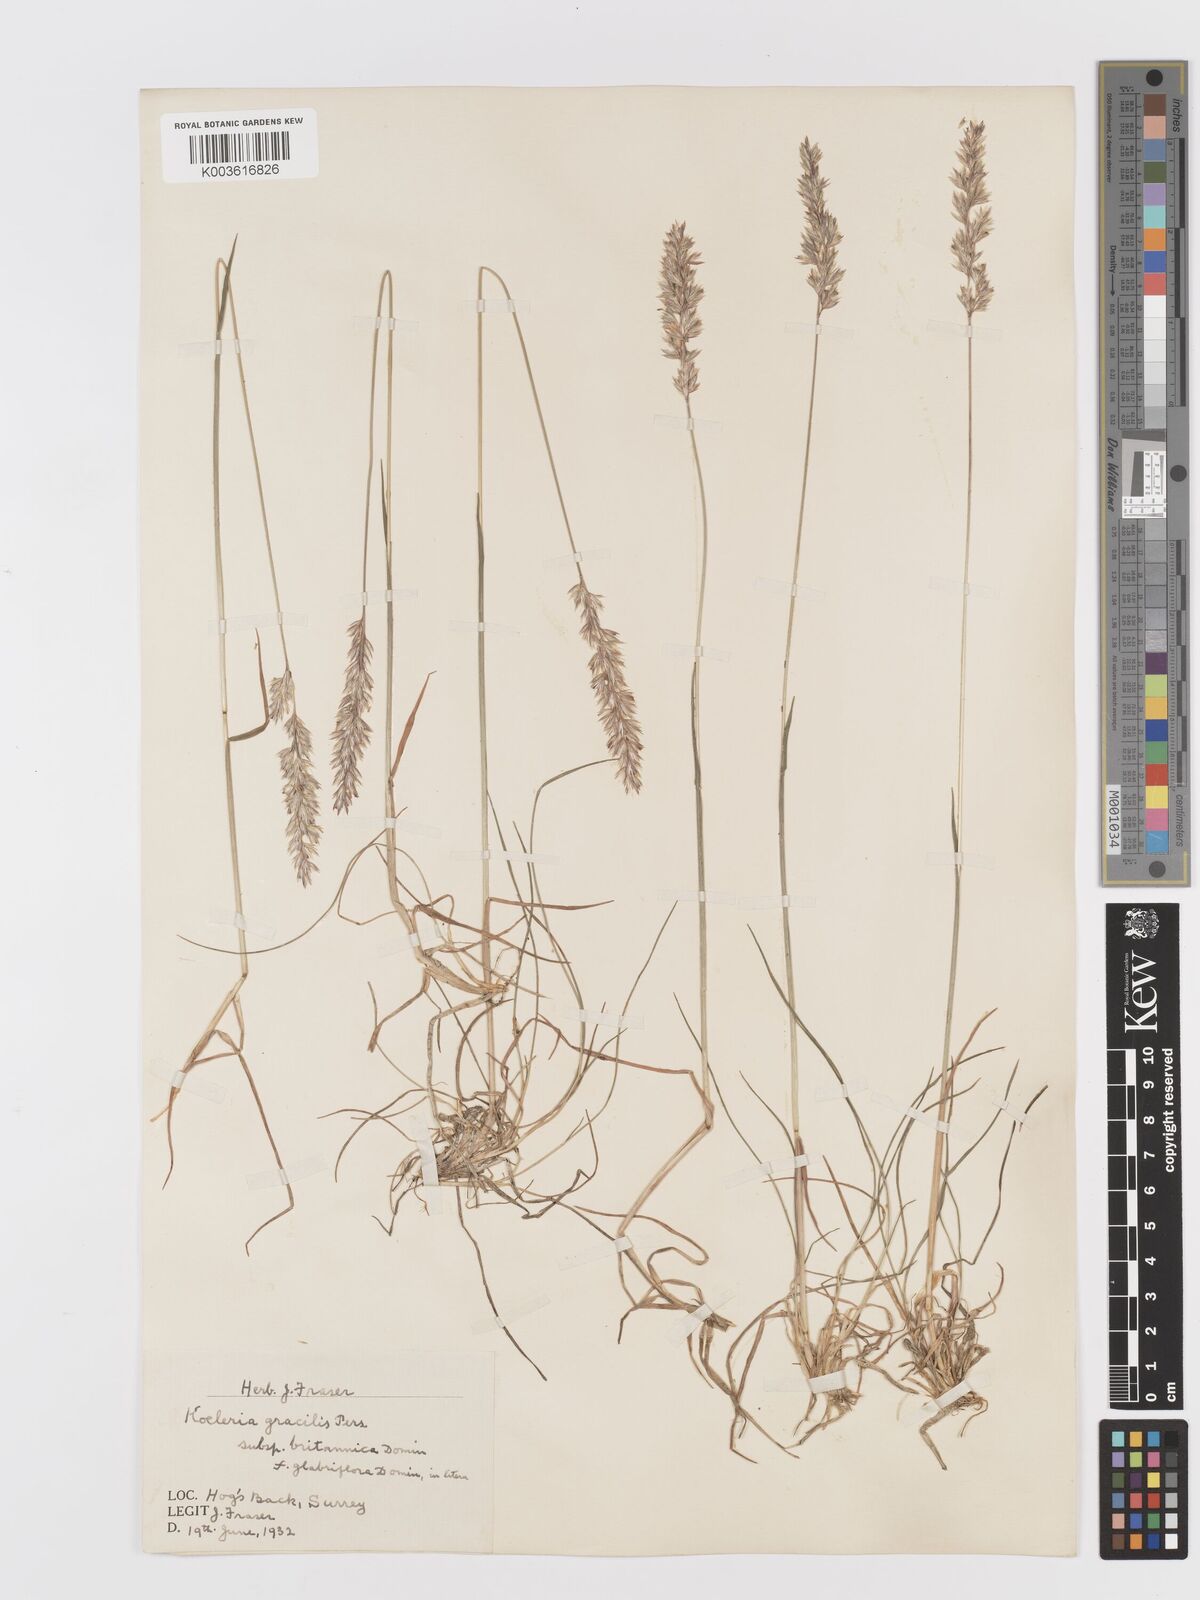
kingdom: Plantae
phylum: Tracheophyta
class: Liliopsida
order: Poales
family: Poaceae
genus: Koeleria
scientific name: Koeleria macrantha
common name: Crested hair-grass
